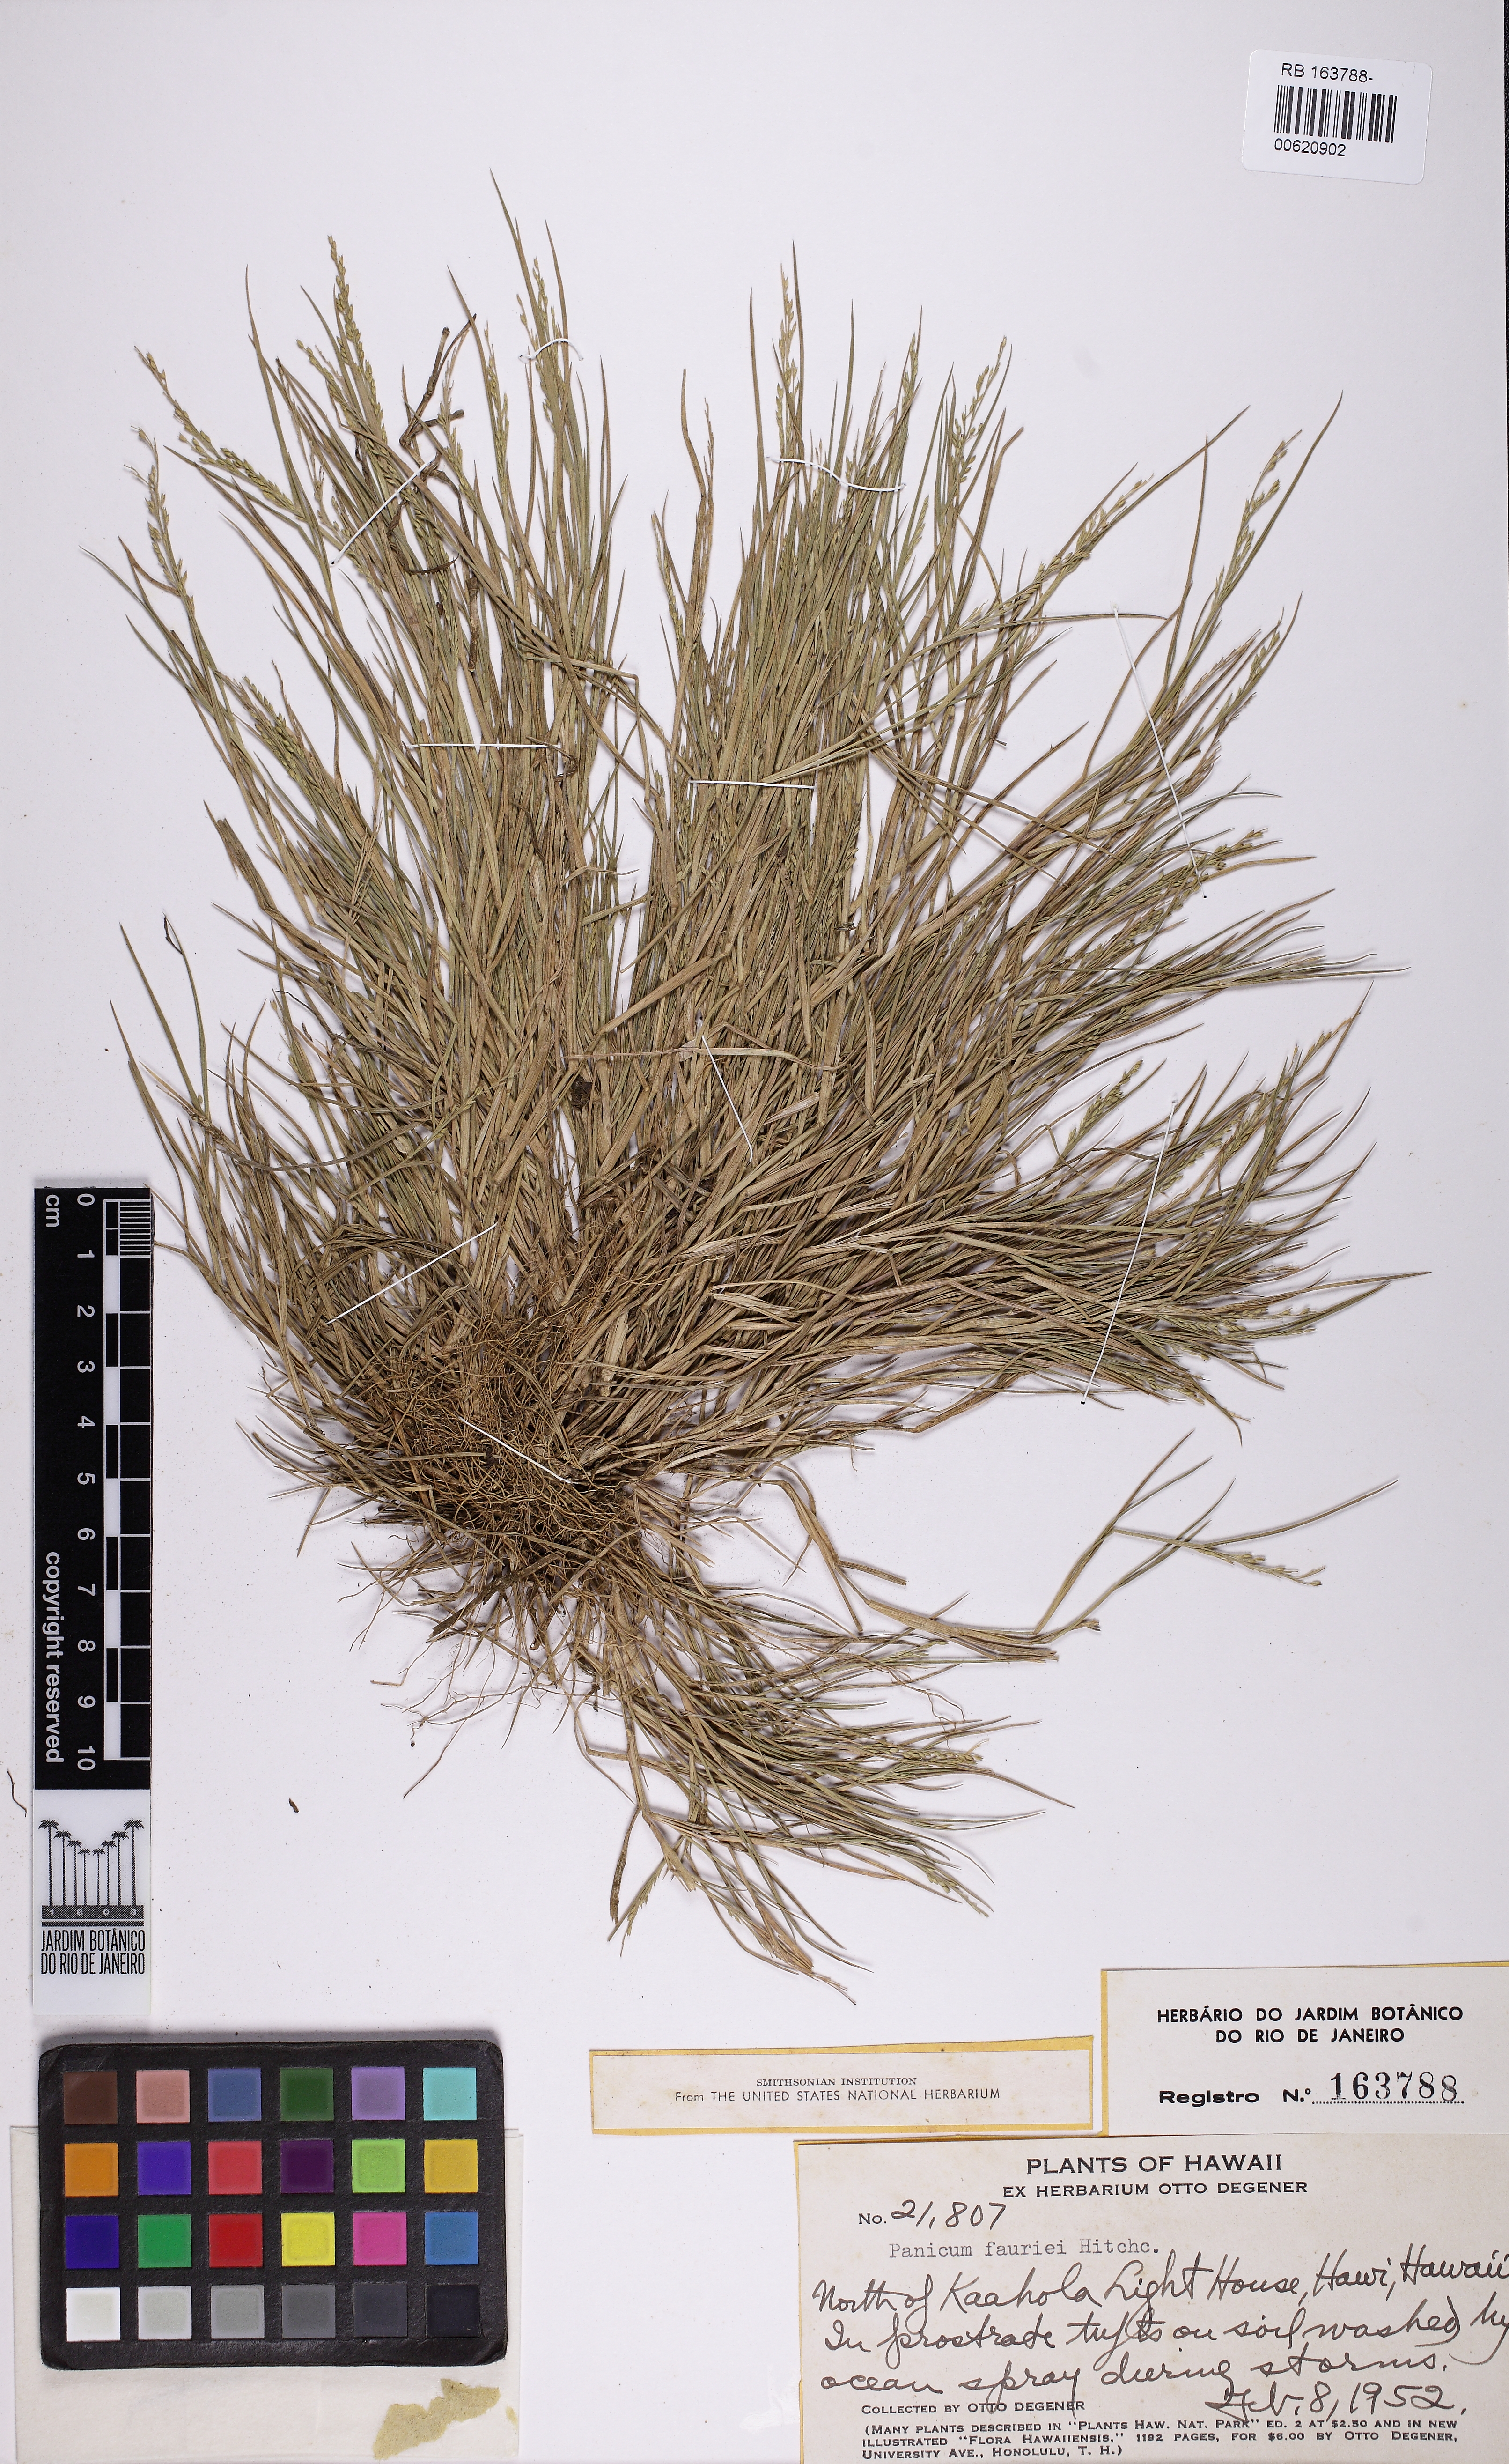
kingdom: Plantae
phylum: Tracheophyta
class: Liliopsida
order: Poales
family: Poaceae
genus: Panicum
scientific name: Panicum fauriei
